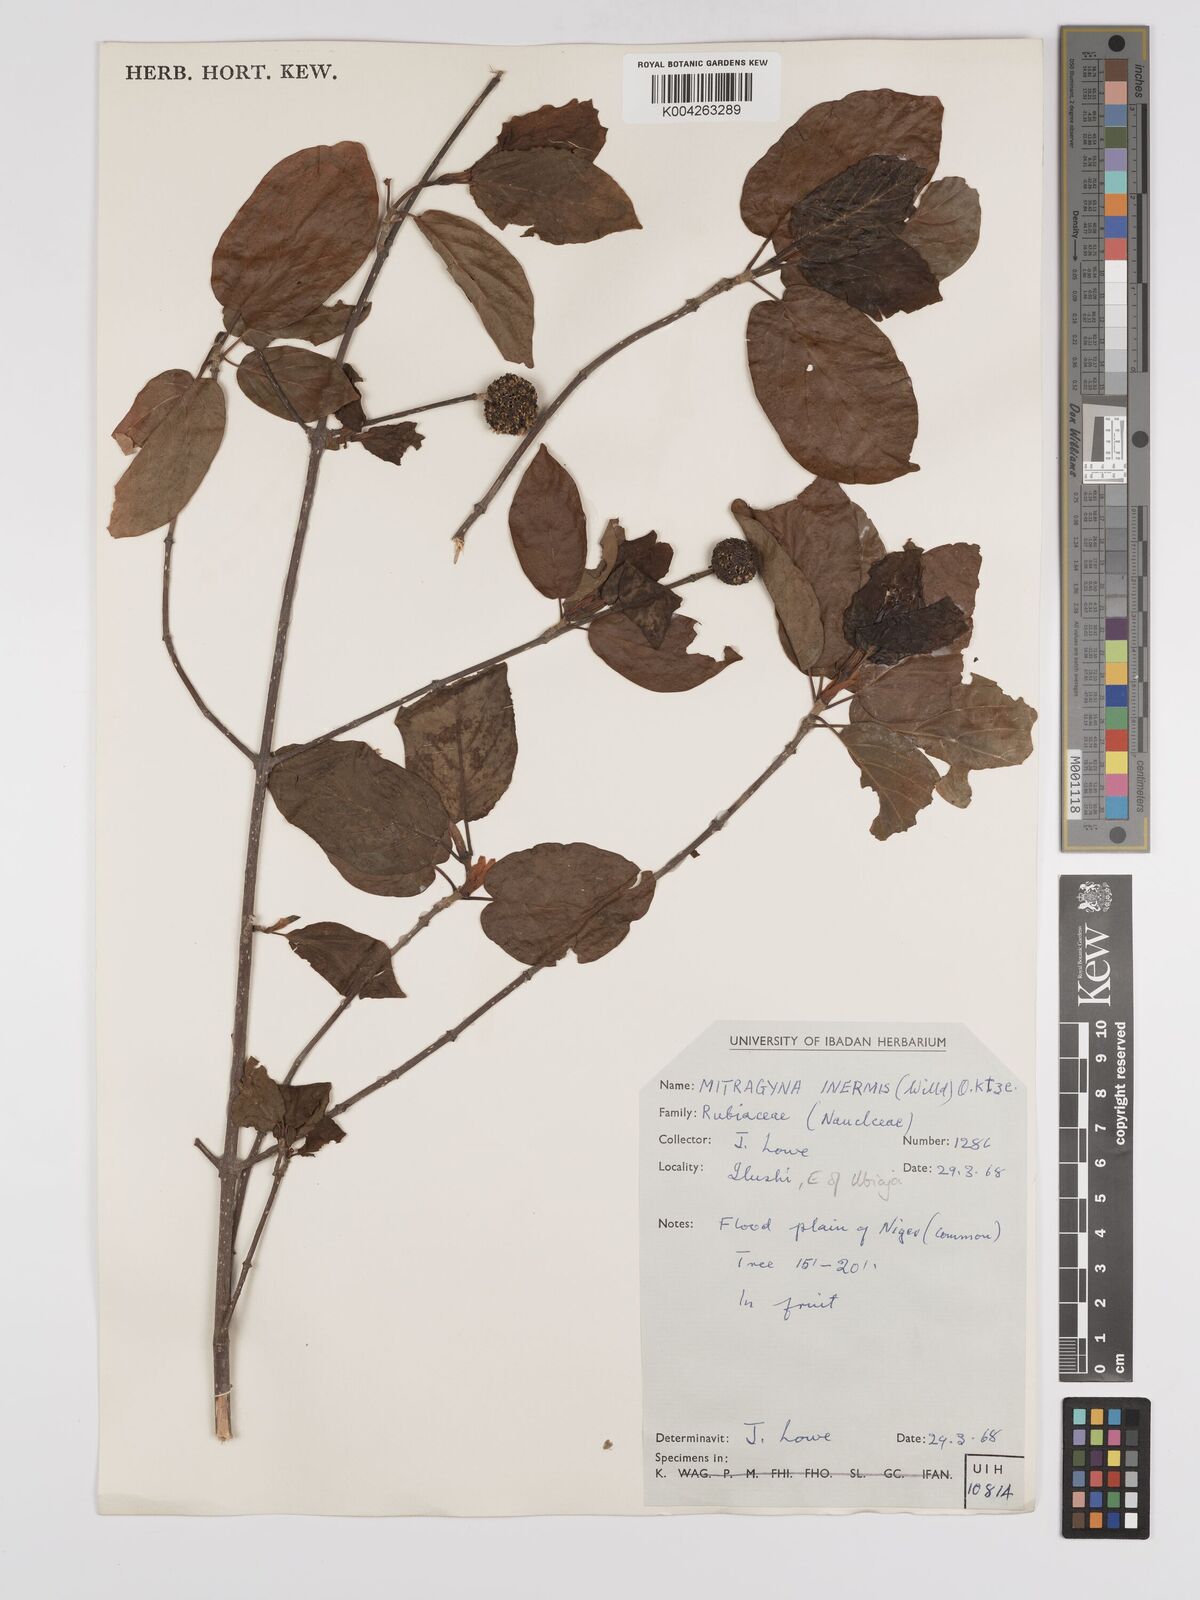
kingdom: Plantae
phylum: Tracheophyta
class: Magnoliopsida
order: Gentianales
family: Rubiaceae
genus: Mitragyna
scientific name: Mitragyna inermis
